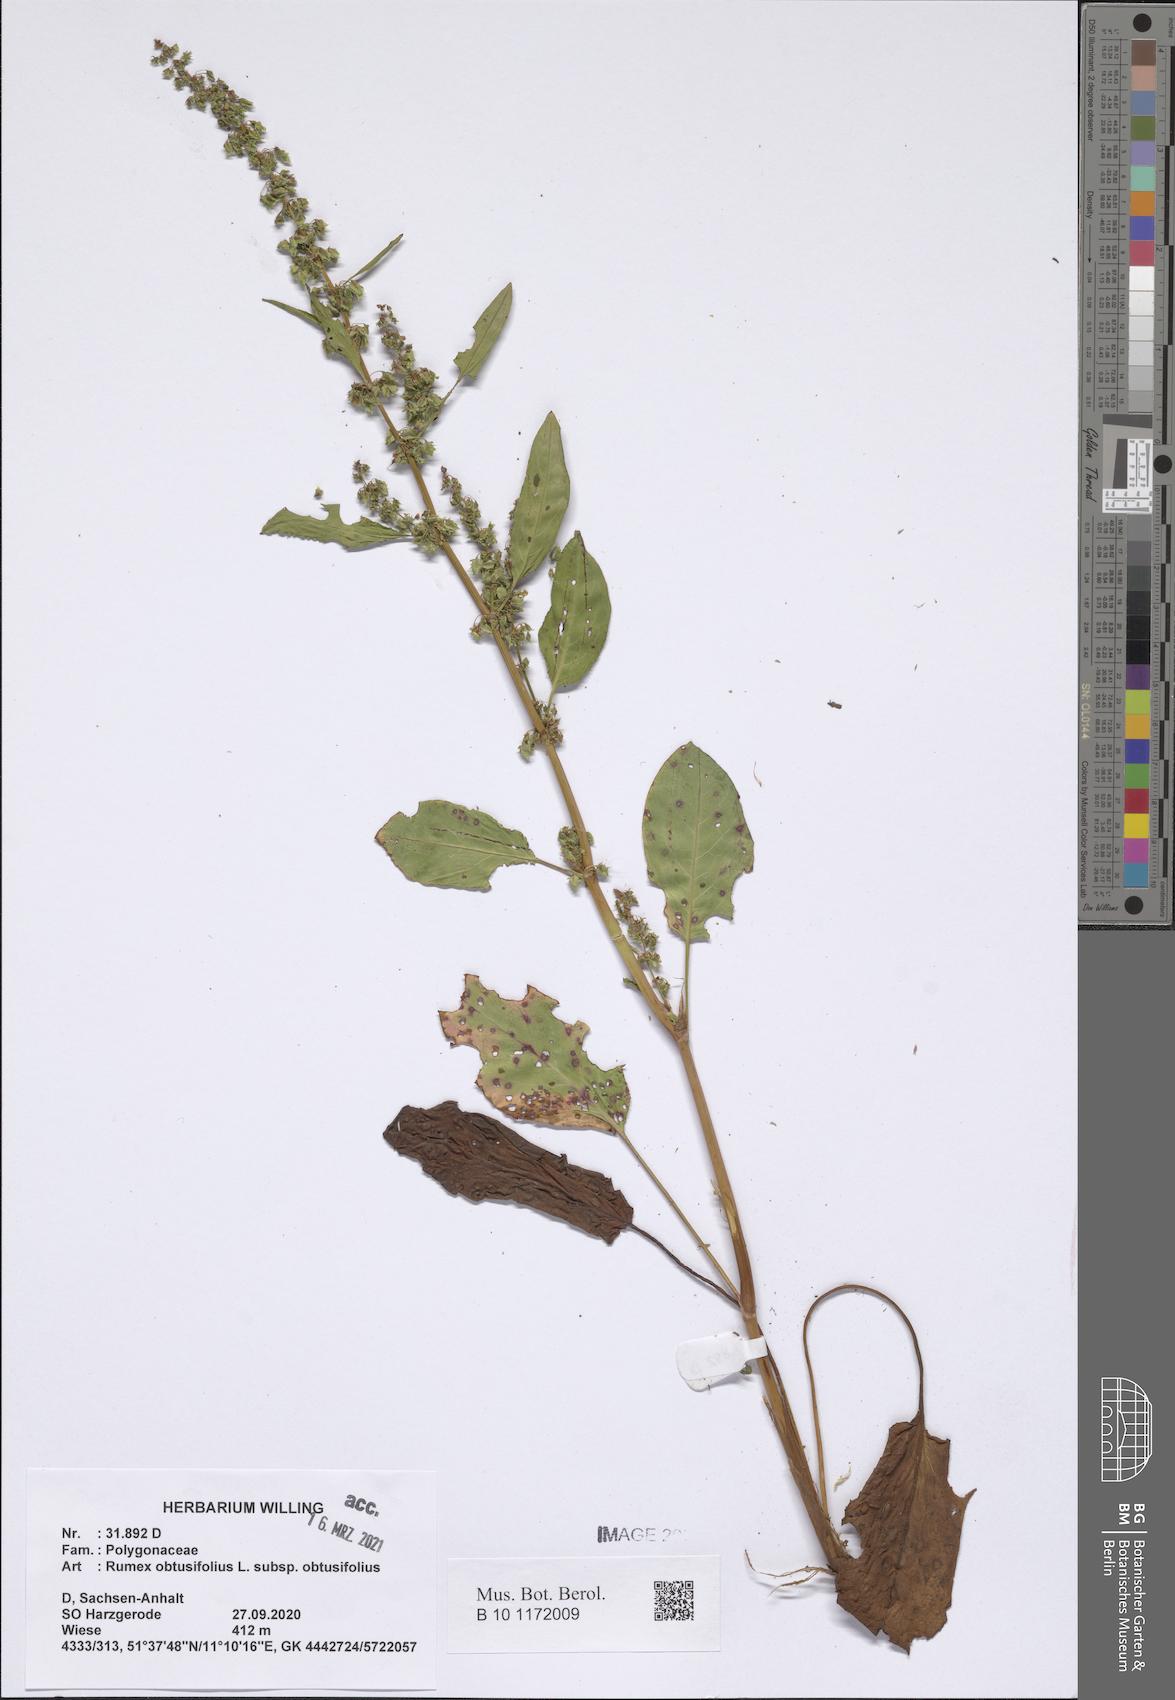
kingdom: Plantae
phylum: Tracheophyta
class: Magnoliopsida
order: Caryophyllales
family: Polygonaceae
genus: Rumex
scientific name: Rumex obtusifolius
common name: Bitter dock
